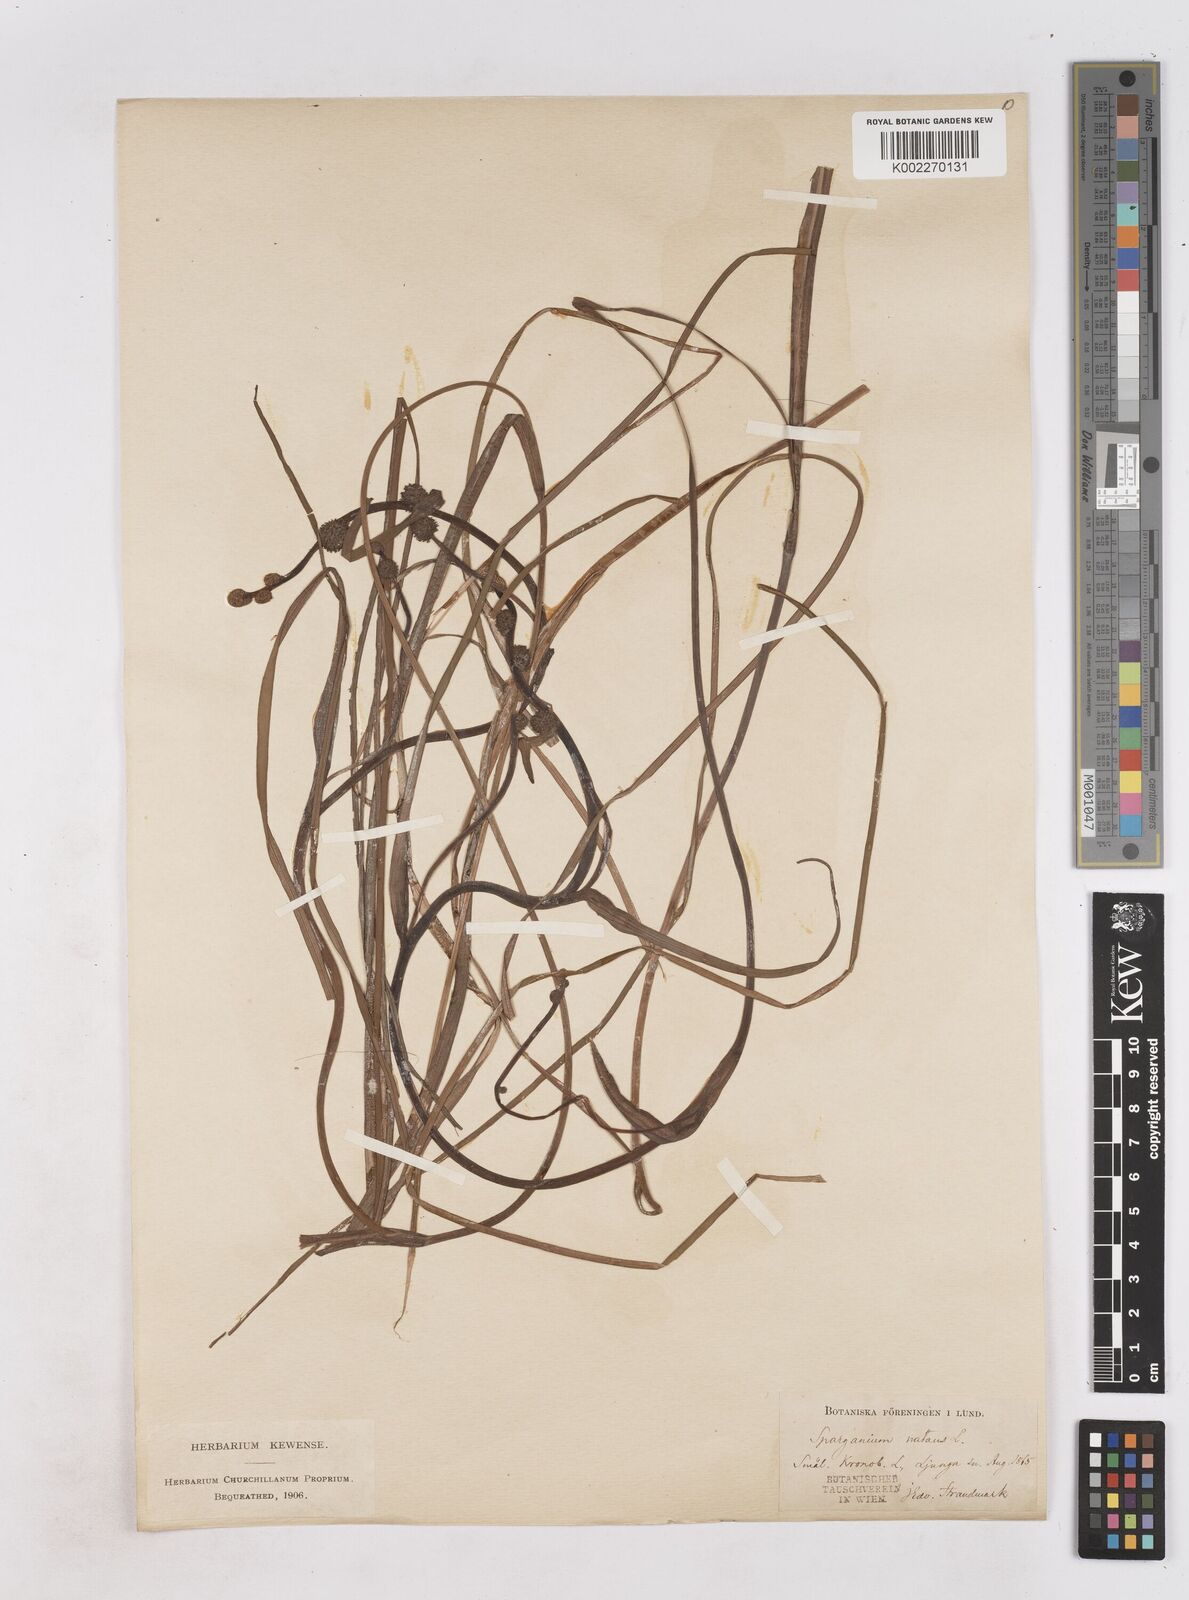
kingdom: Plantae
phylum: Tracheophyta
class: Liliopsida
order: Poales
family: Typhaceae
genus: Sparganium
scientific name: Sparganium natans
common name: Least bur-reed
